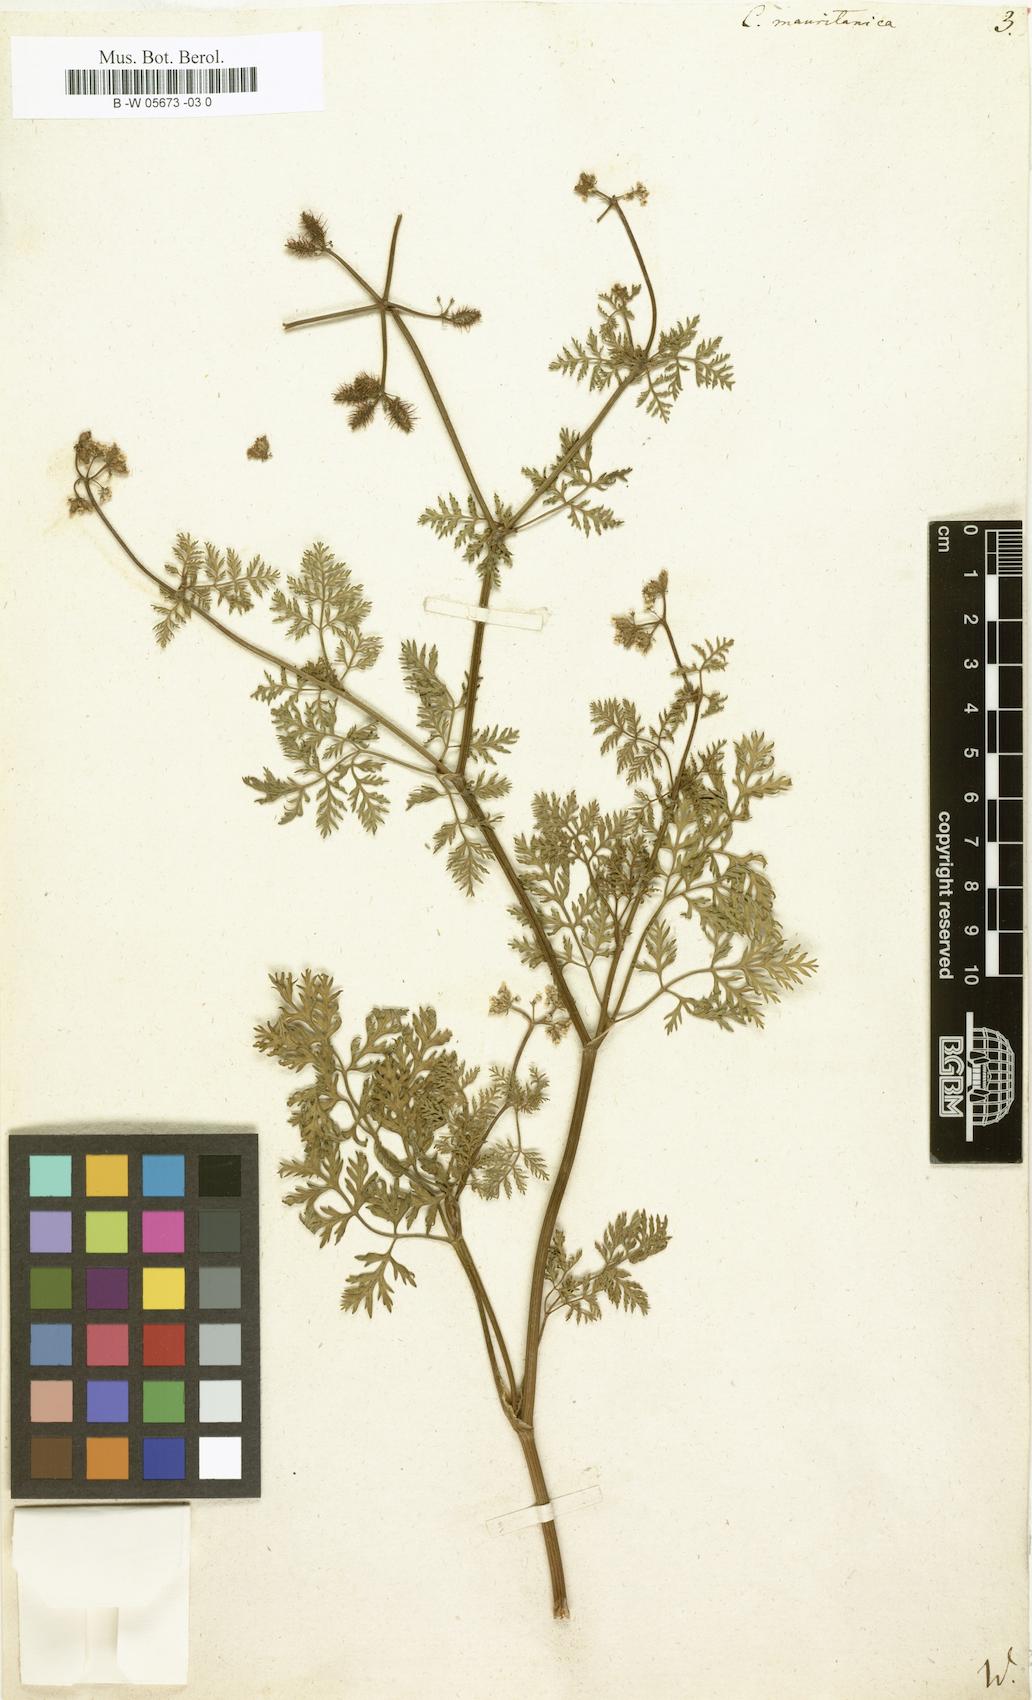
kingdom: Plantae
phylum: Tracheophyta
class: Magnoliopsida
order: Apiales
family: Apiaceae
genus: Torilis
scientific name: Torilis elongata
